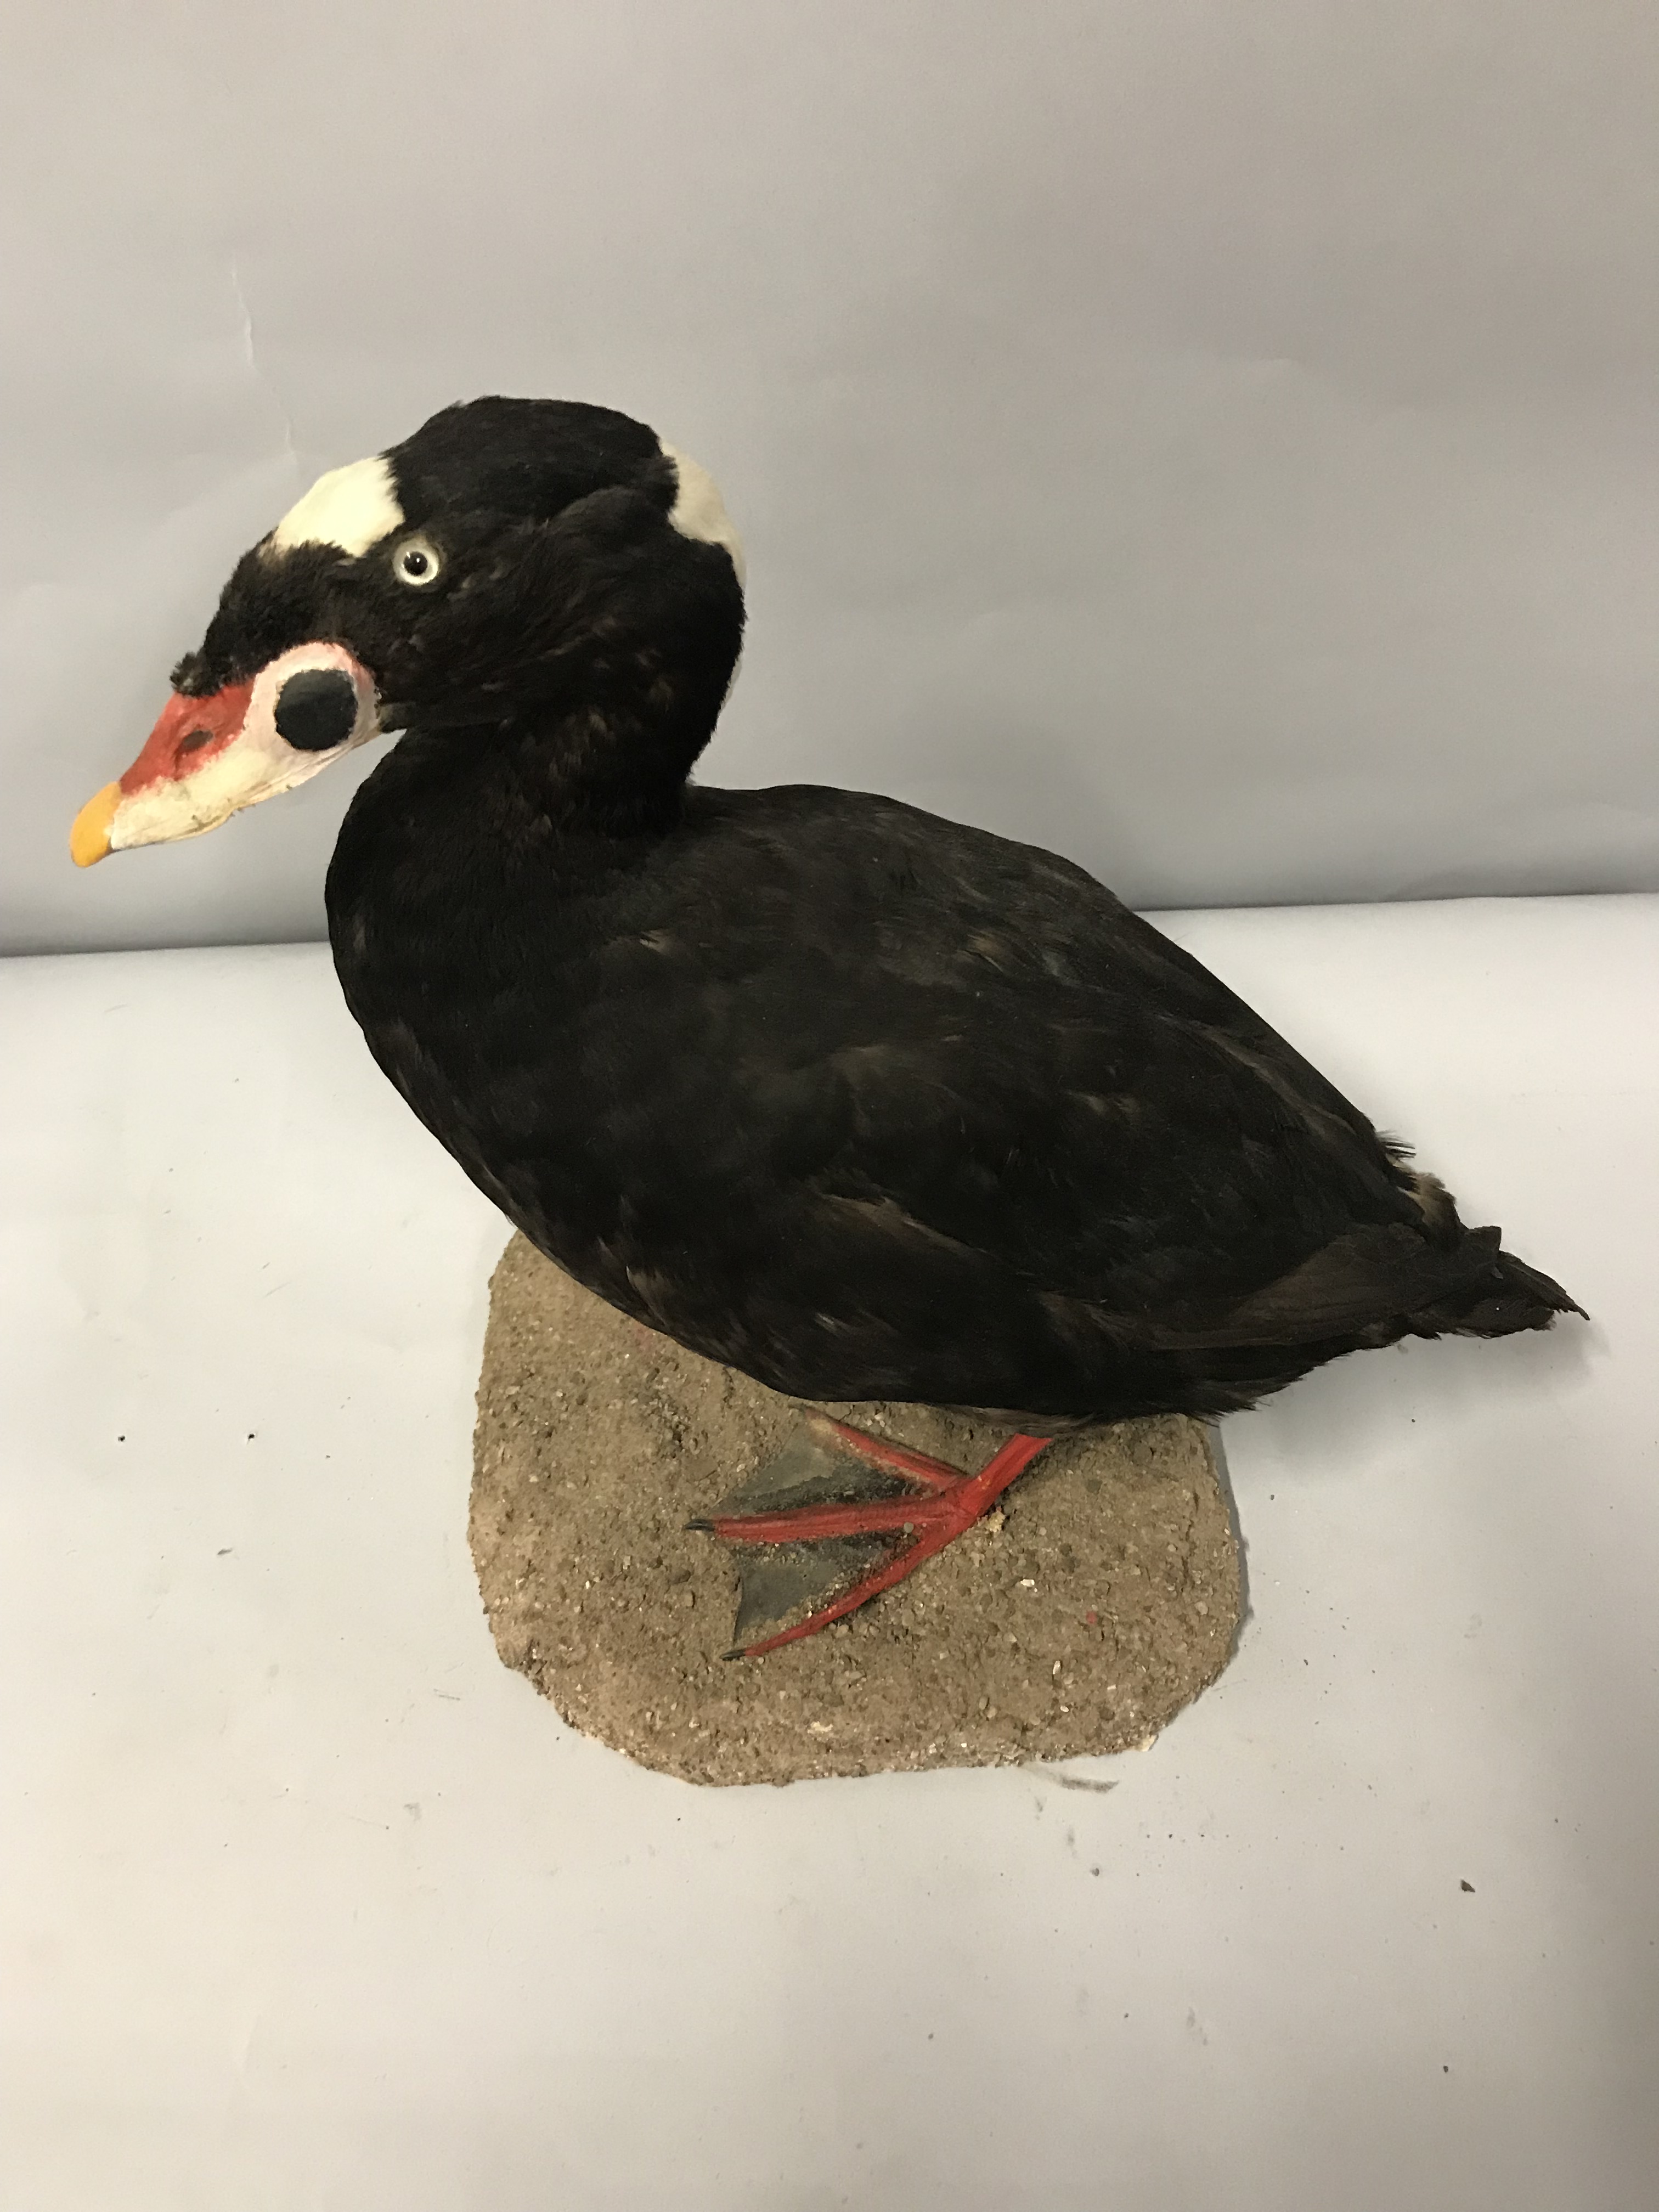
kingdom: Animalia
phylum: Chordata
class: Aves
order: Anseriformes
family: Anatidae
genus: Melanitta
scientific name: Melanitta perspicillata
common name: Surf scoter
